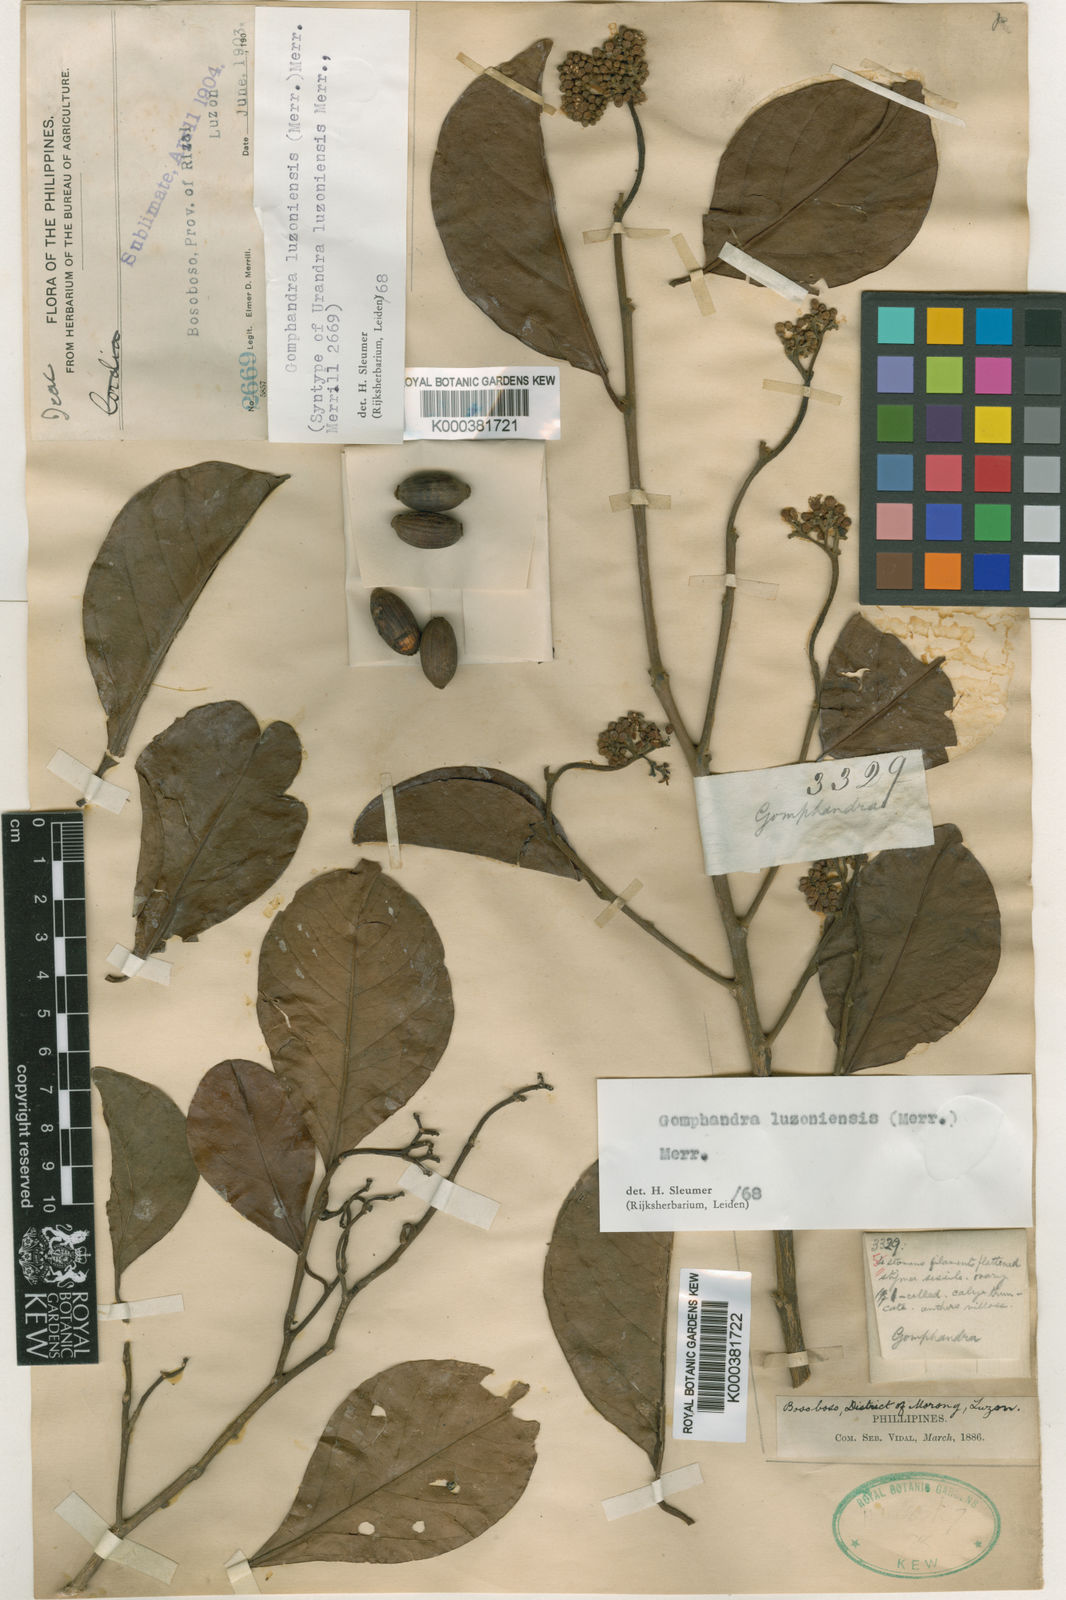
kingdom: Plantae
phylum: Tracheophyta
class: Magnoliopsida
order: Cardiopteridales
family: Stemonuraceae
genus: Gomphandra
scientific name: Gomphandra luzoniensis
